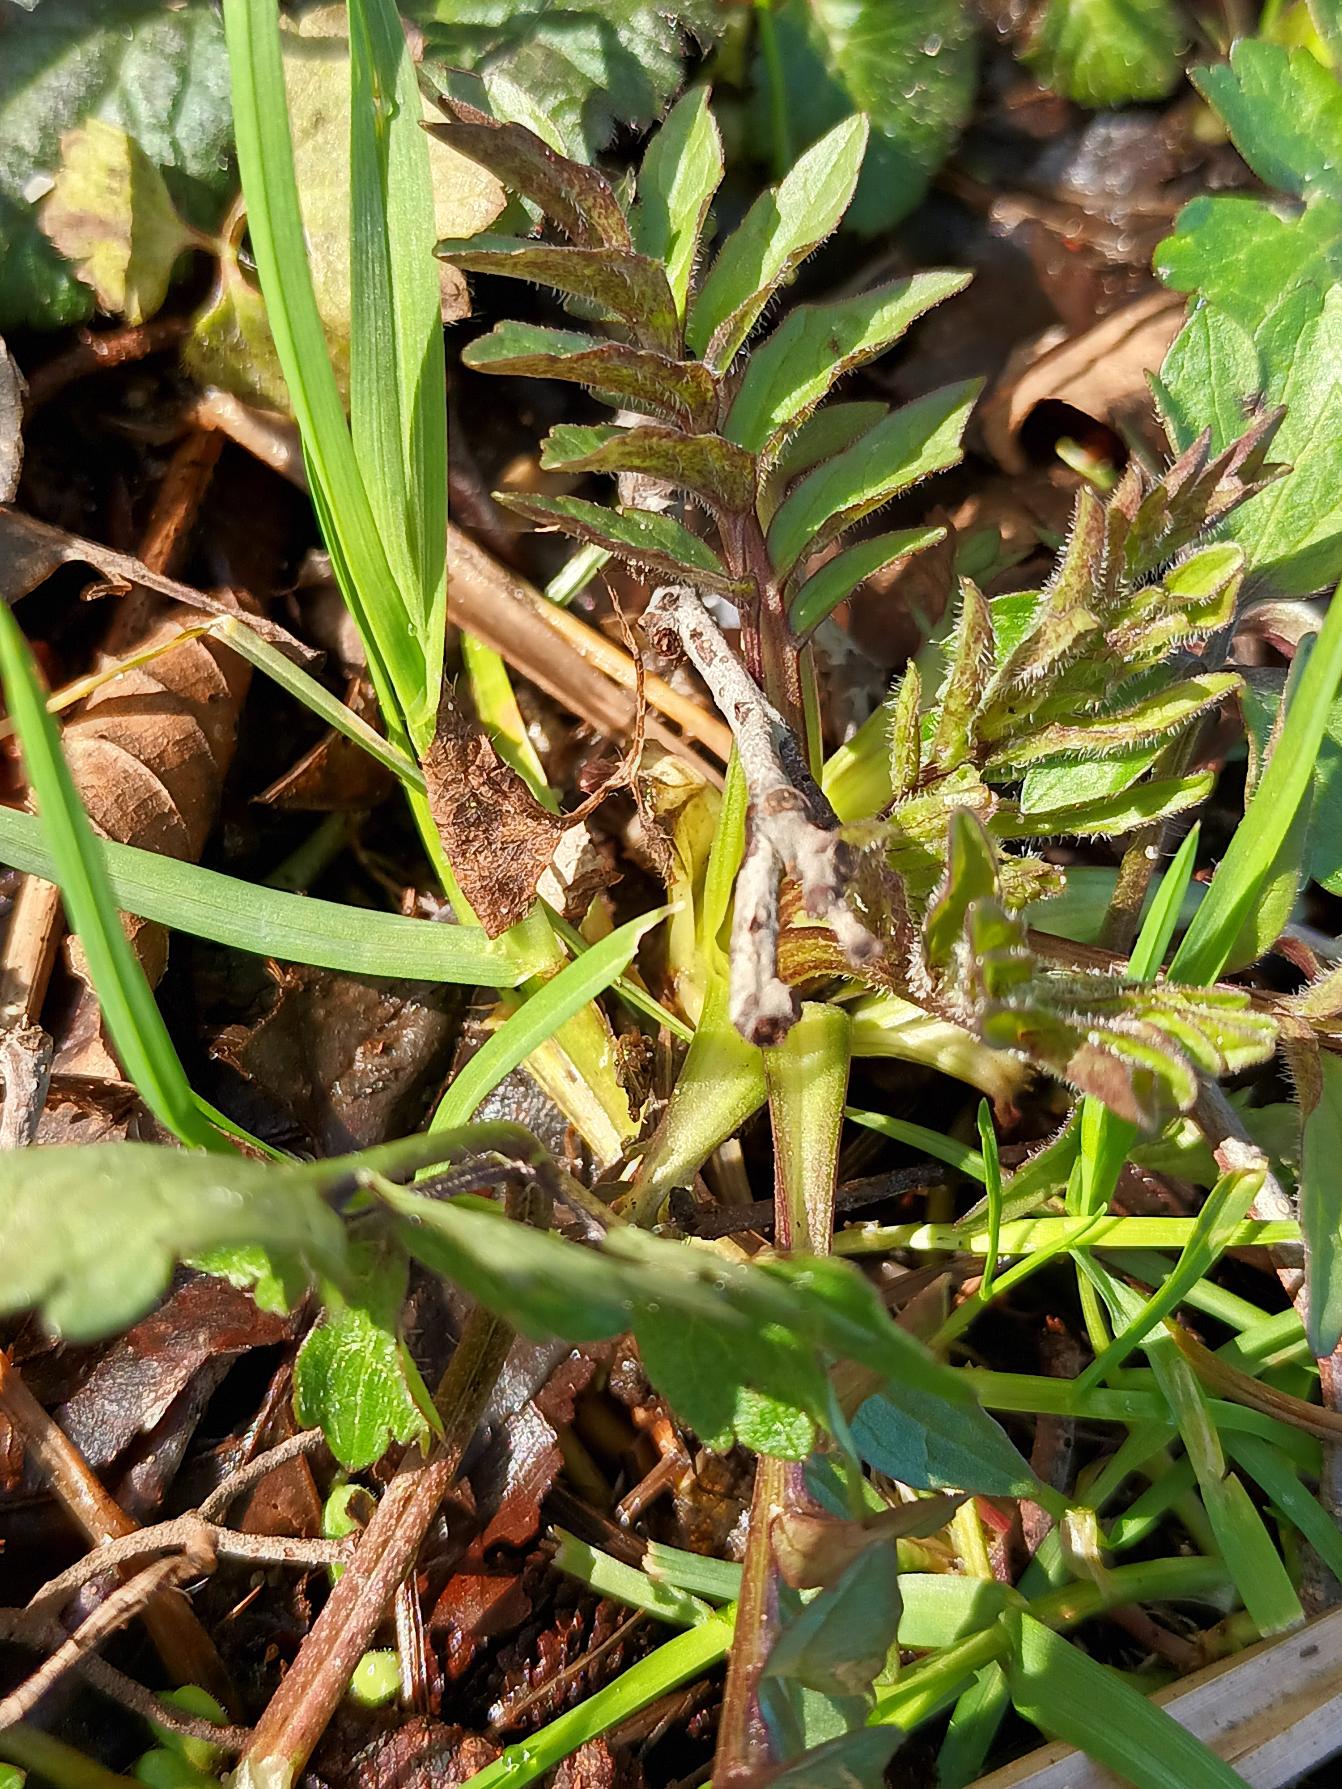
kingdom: Plantae
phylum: Tracheophyta
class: Magnoliopsida
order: Dipsacales
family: Caprifoliaceae
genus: Valeriana
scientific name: Valeriana excelsa
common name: Krybende baldrian
